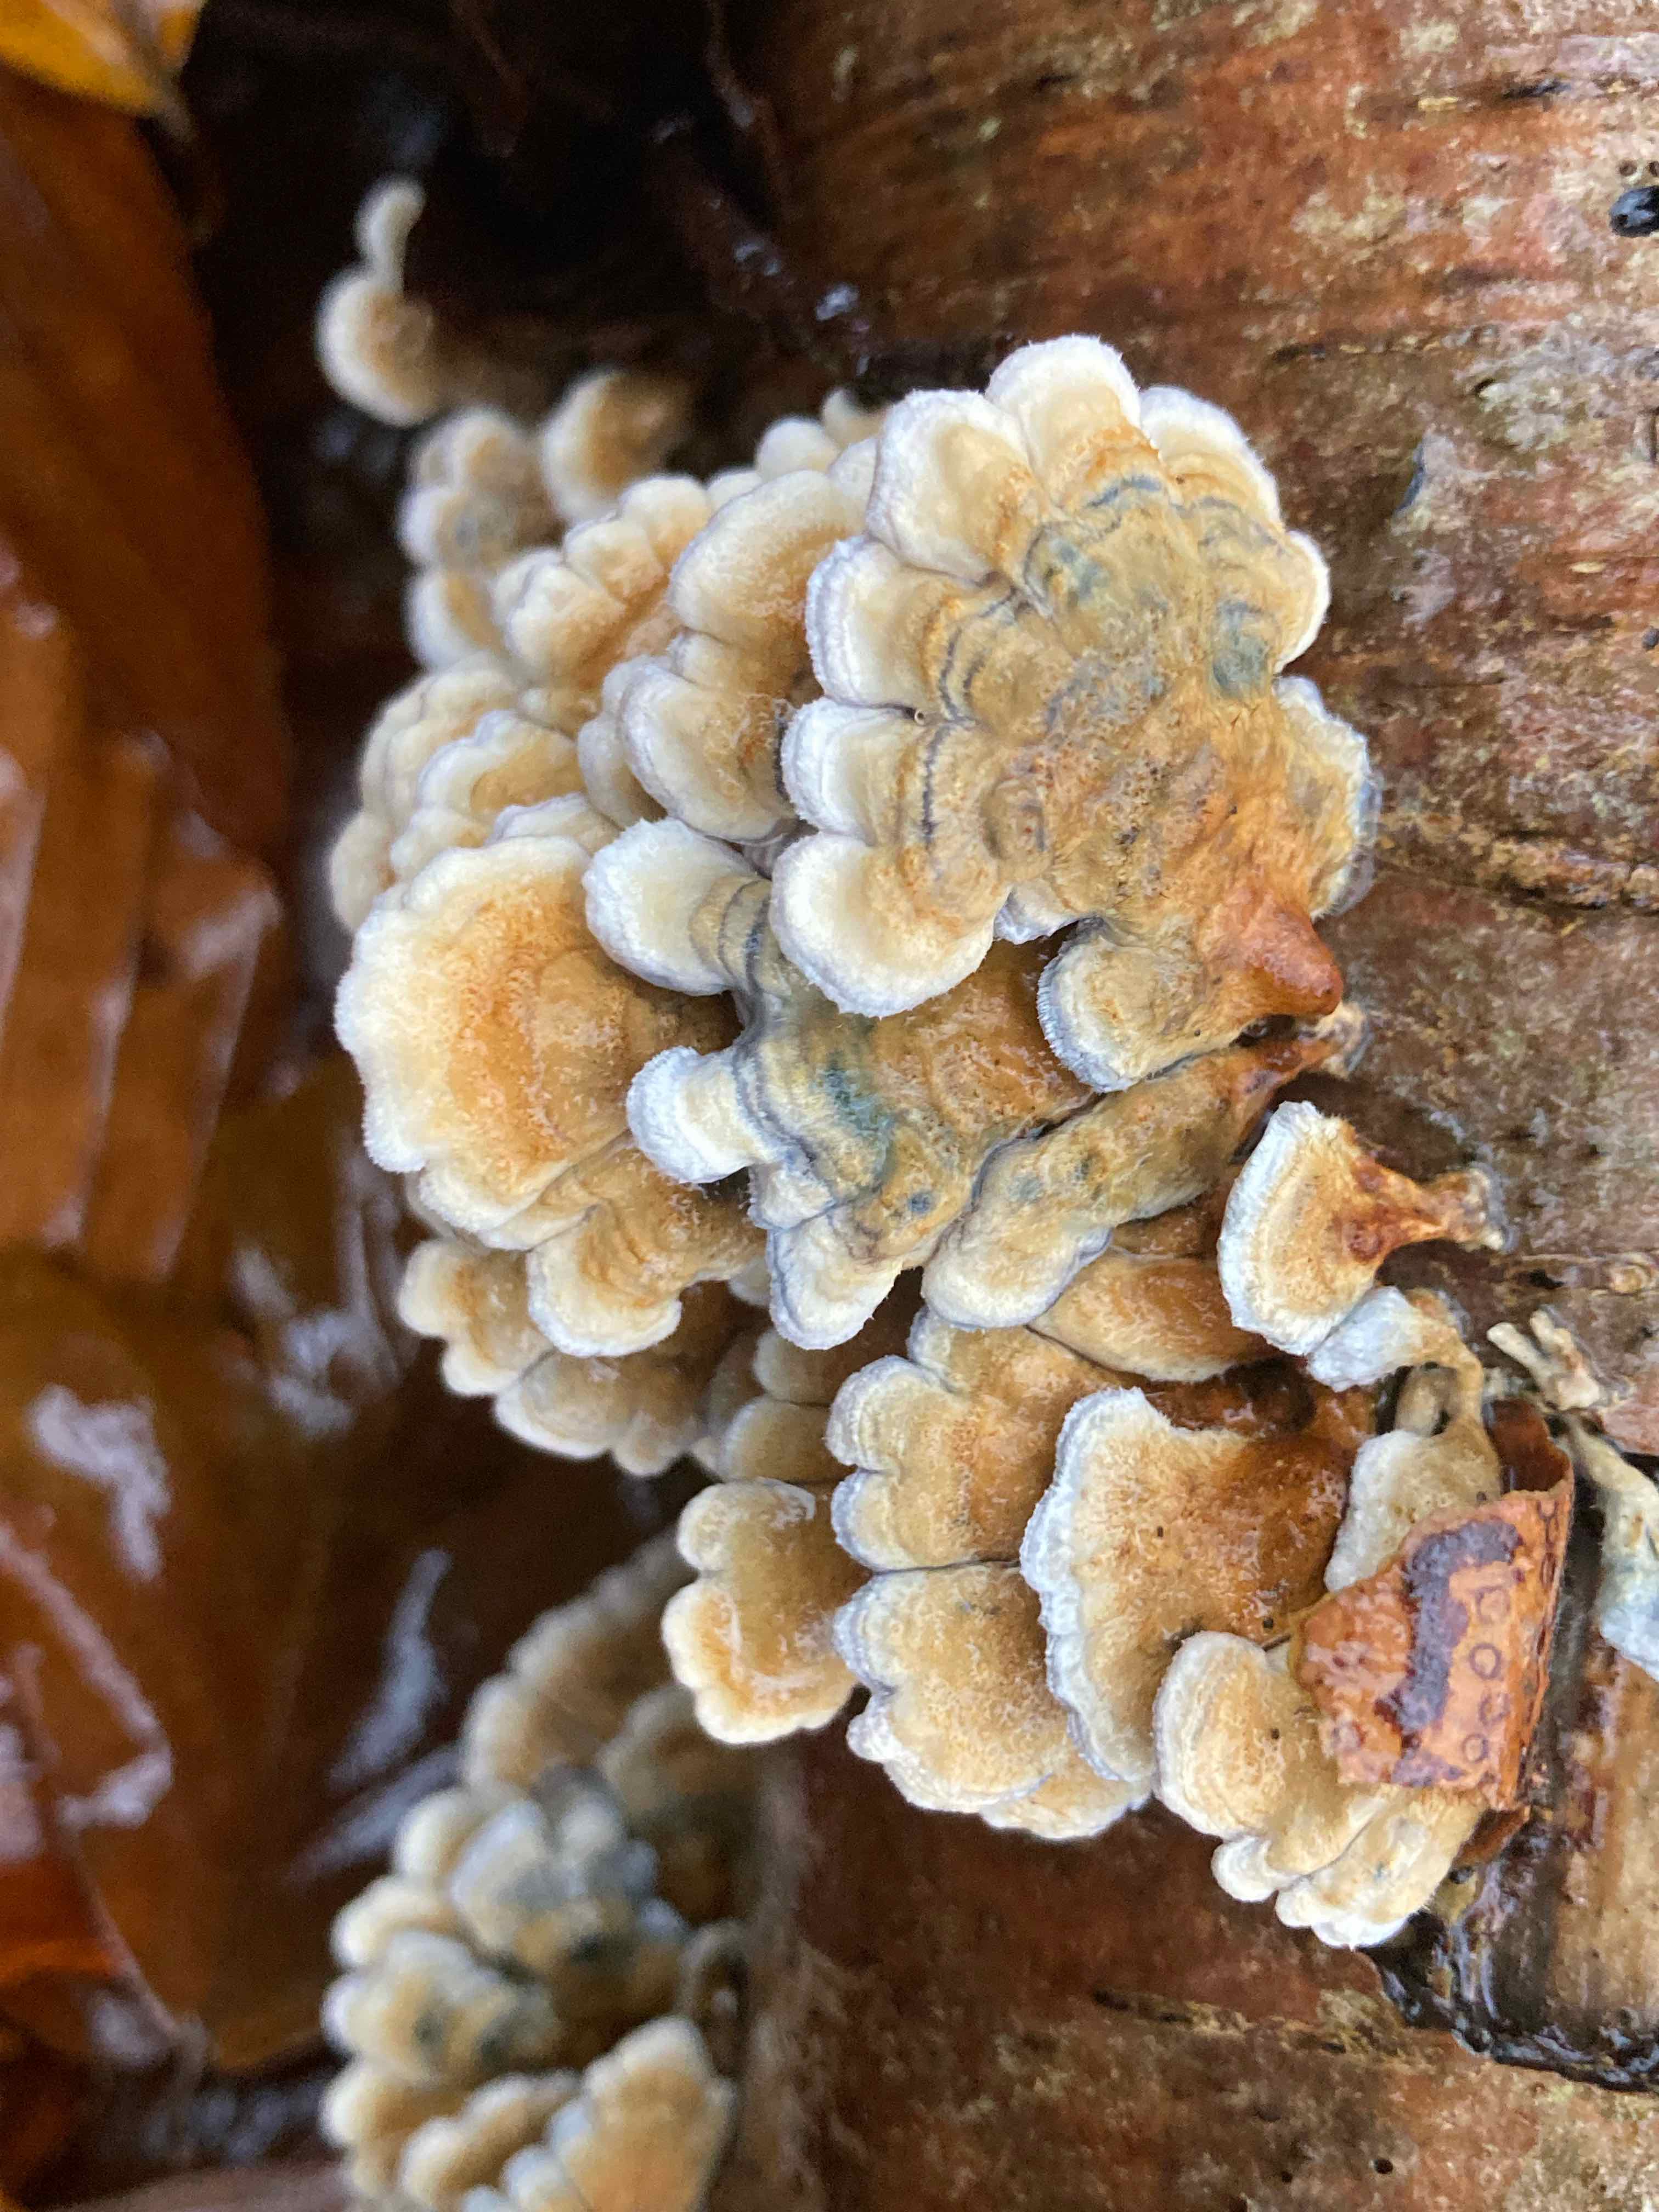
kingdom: Fungi
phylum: Basidiomycota
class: Agaricomycetes
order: Amylocorticiales
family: Amylocorticiaceae
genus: Plicaturopsis
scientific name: Plicaturopsis crispa
